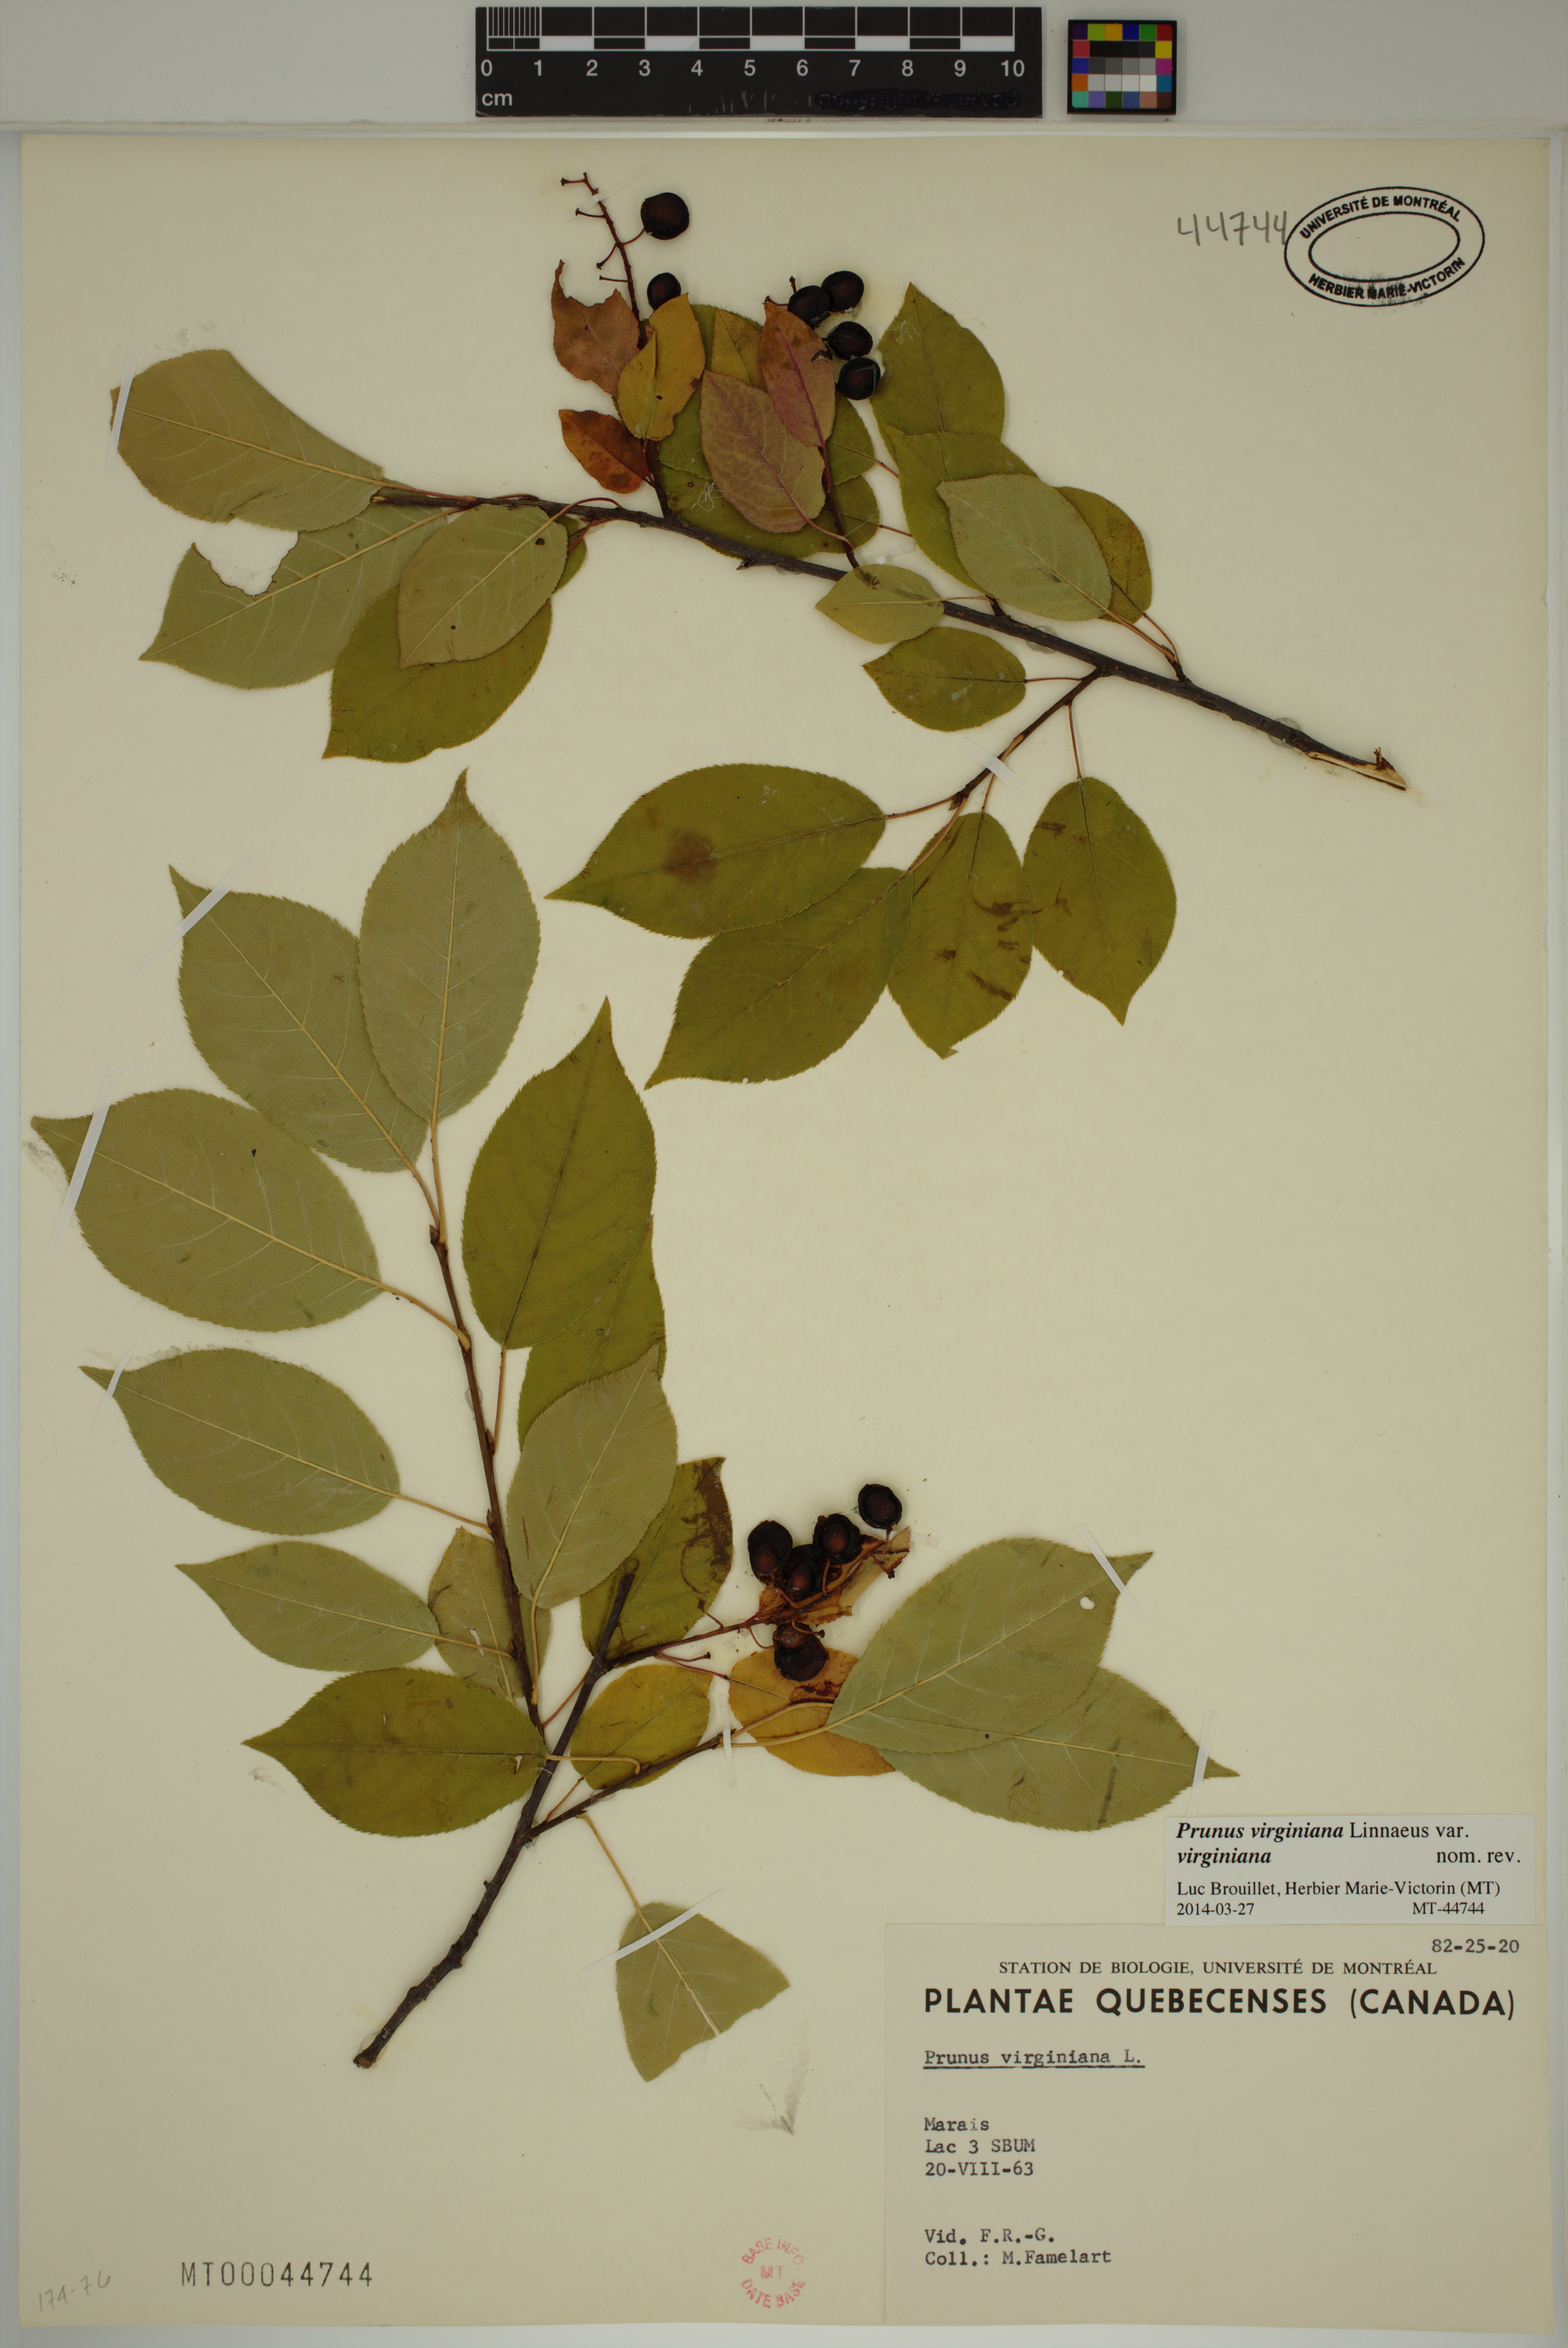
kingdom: Plantae
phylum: Tracheophyta
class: Magnoliopsida
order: Rosales
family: Rosaceae
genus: Prunus
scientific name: Prunus virginiana
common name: Chokecherry
